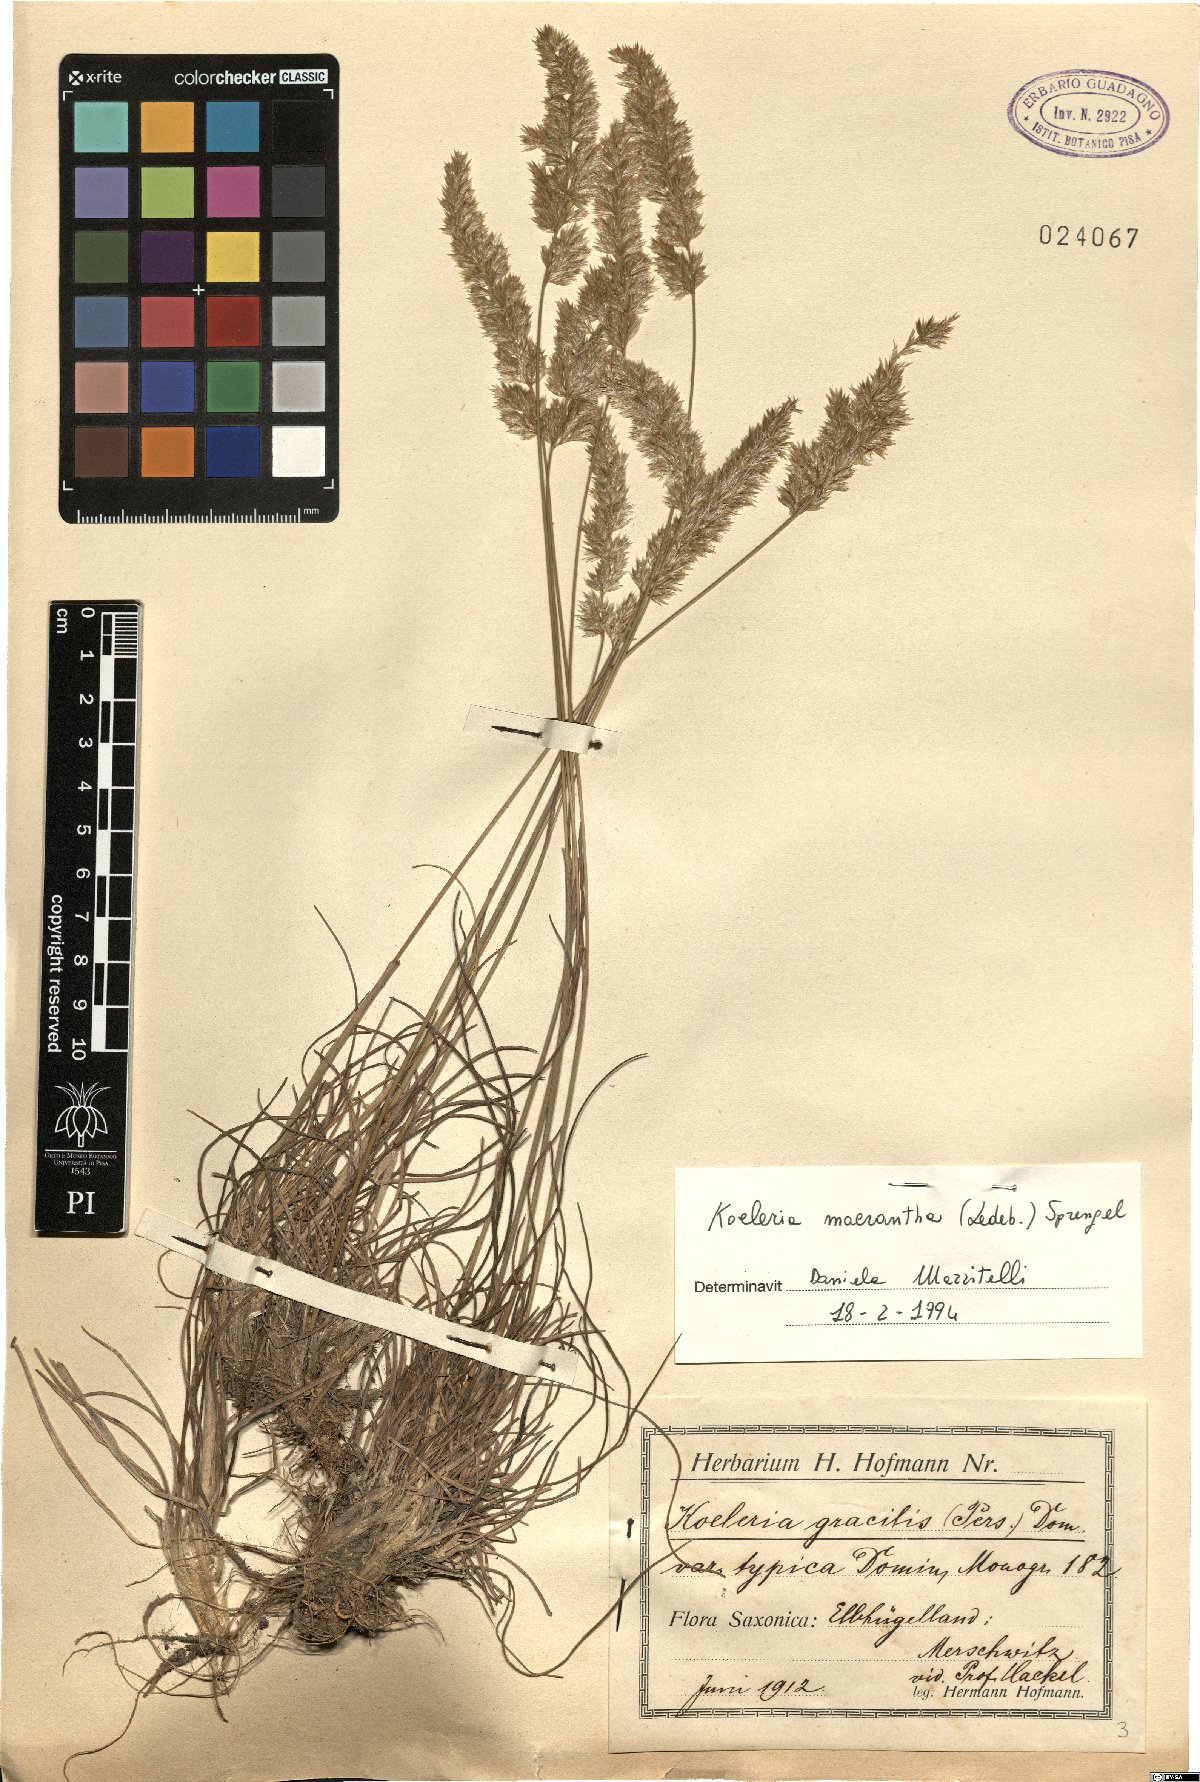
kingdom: Plantae
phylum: Tracheophyta
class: Liliopsida
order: Poales
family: Poaceae
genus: Koeleria
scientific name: Koeleria macrantha
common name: Crested hair-grass
